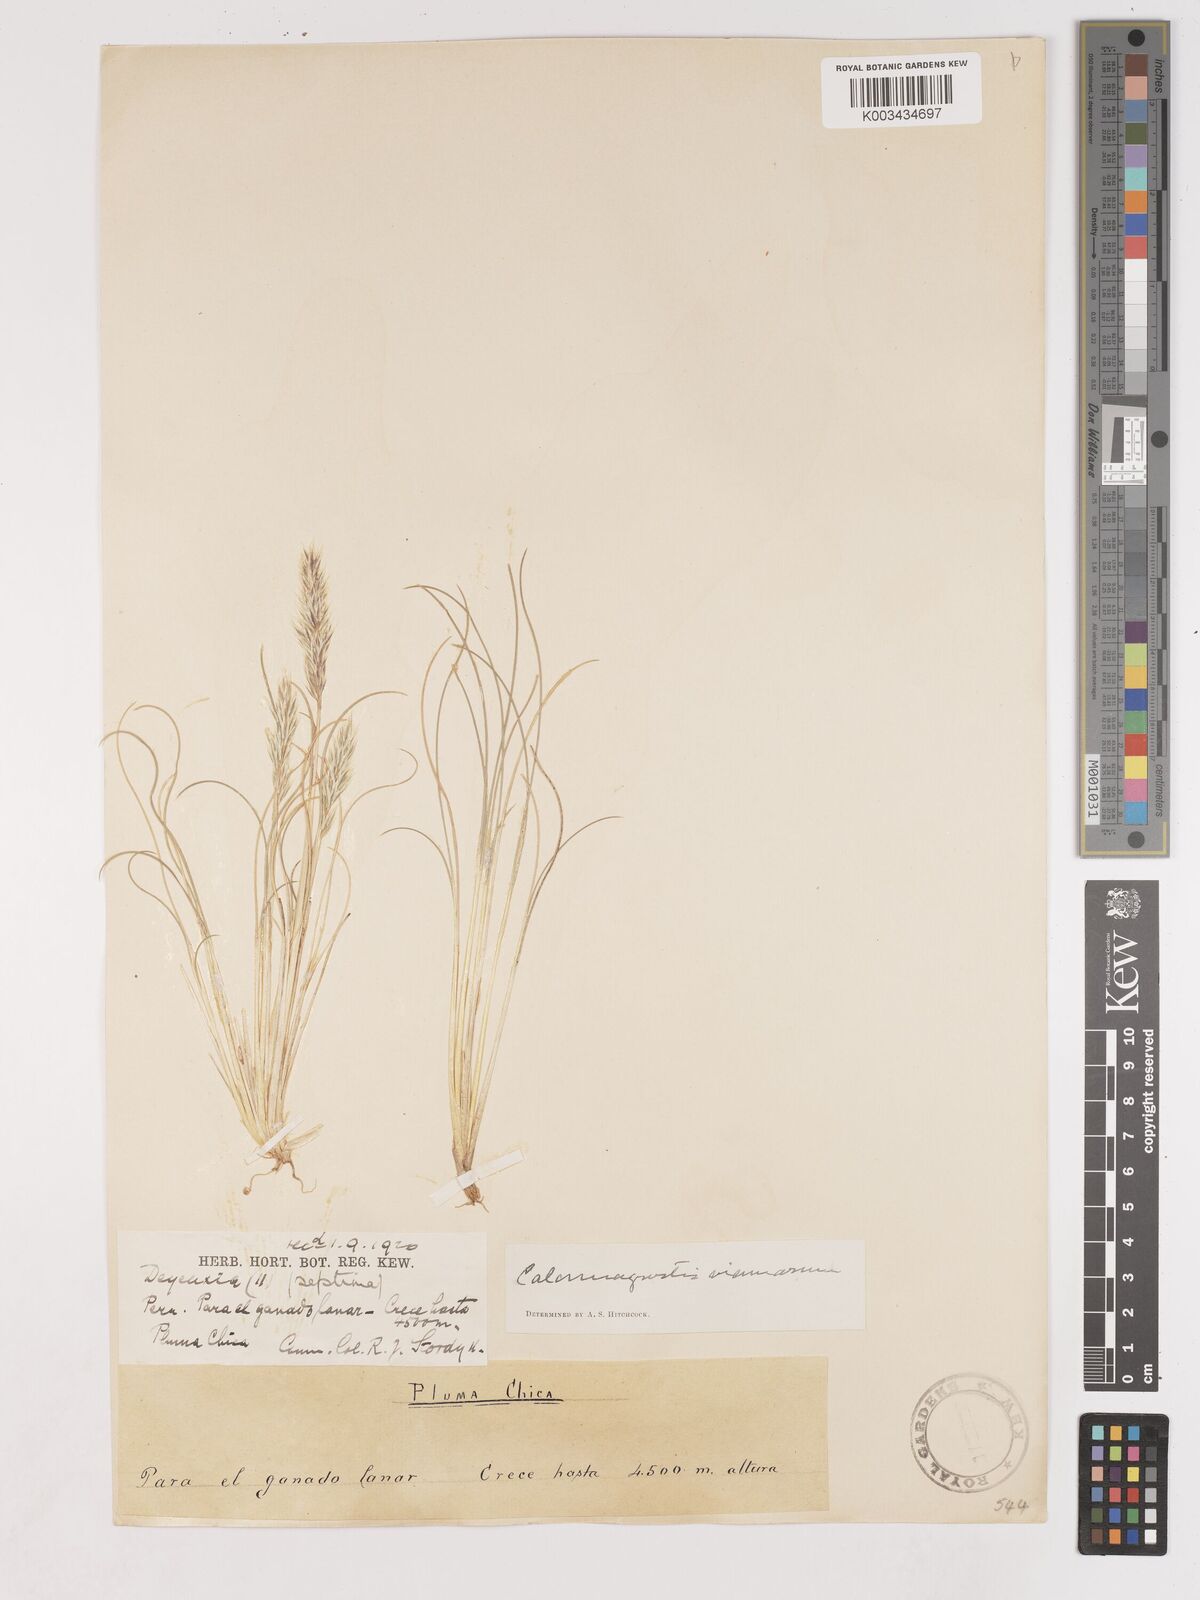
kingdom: Plantae
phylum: Tracheophyta
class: Liliopsida
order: Poales
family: Poaceae
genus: Cinnagrostis
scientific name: Cinnagrostis vicunarum
